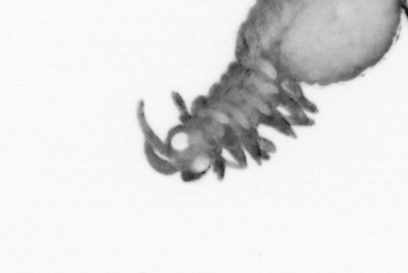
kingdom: Animalia
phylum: Annelida
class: Polychaeta
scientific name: Polychaeta
